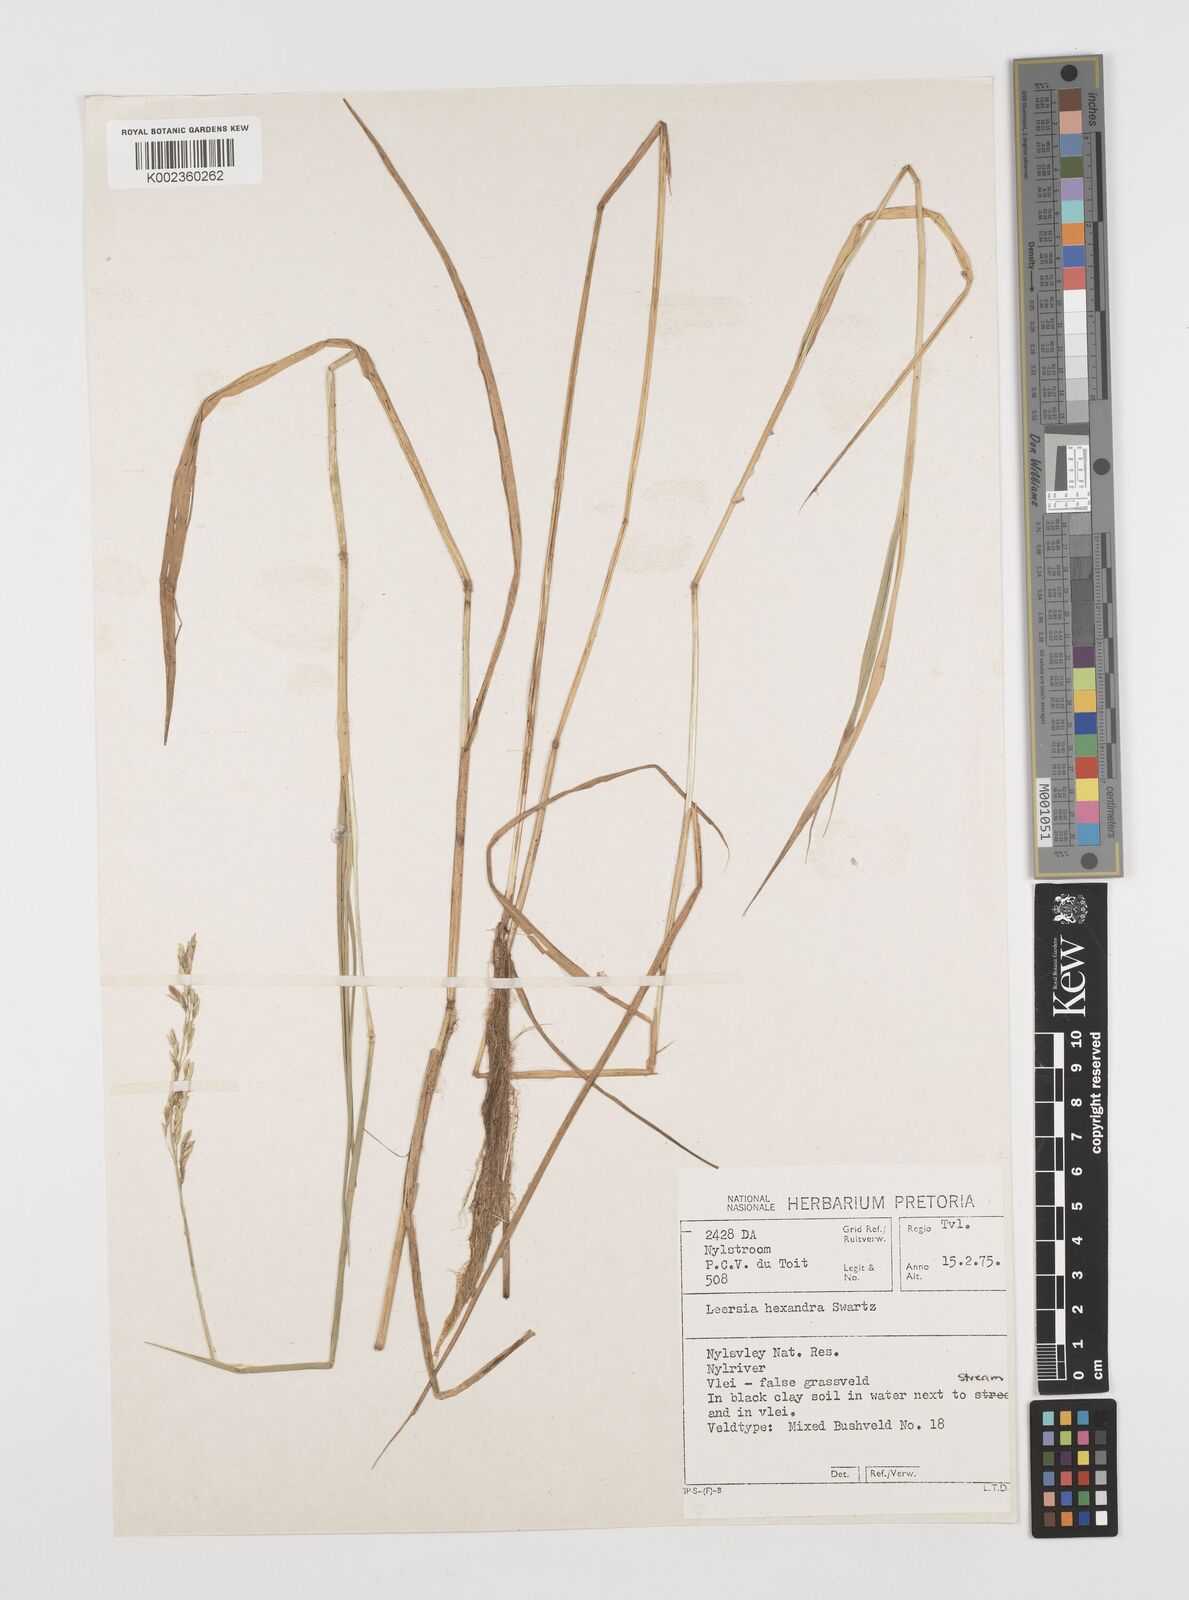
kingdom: Plantae
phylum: Tracheophyta
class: Liliopsida
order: Poales
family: Poaceae
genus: Leersia
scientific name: Leersia hexandra
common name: Southern cut grass
